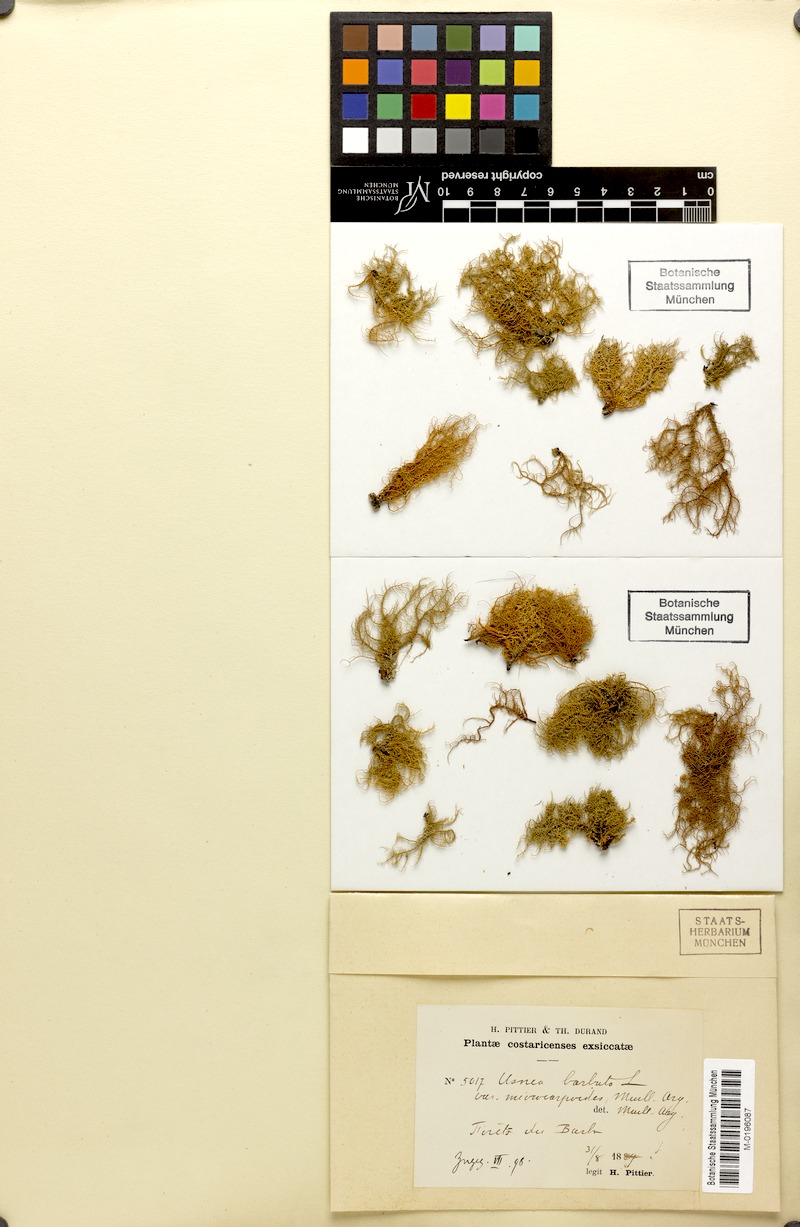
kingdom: Fungi
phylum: Ascomycota
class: Lecanoromycetes
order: Lecanorales
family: Parmeliaceae
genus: Usnea
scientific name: Usnea ramulosissima
